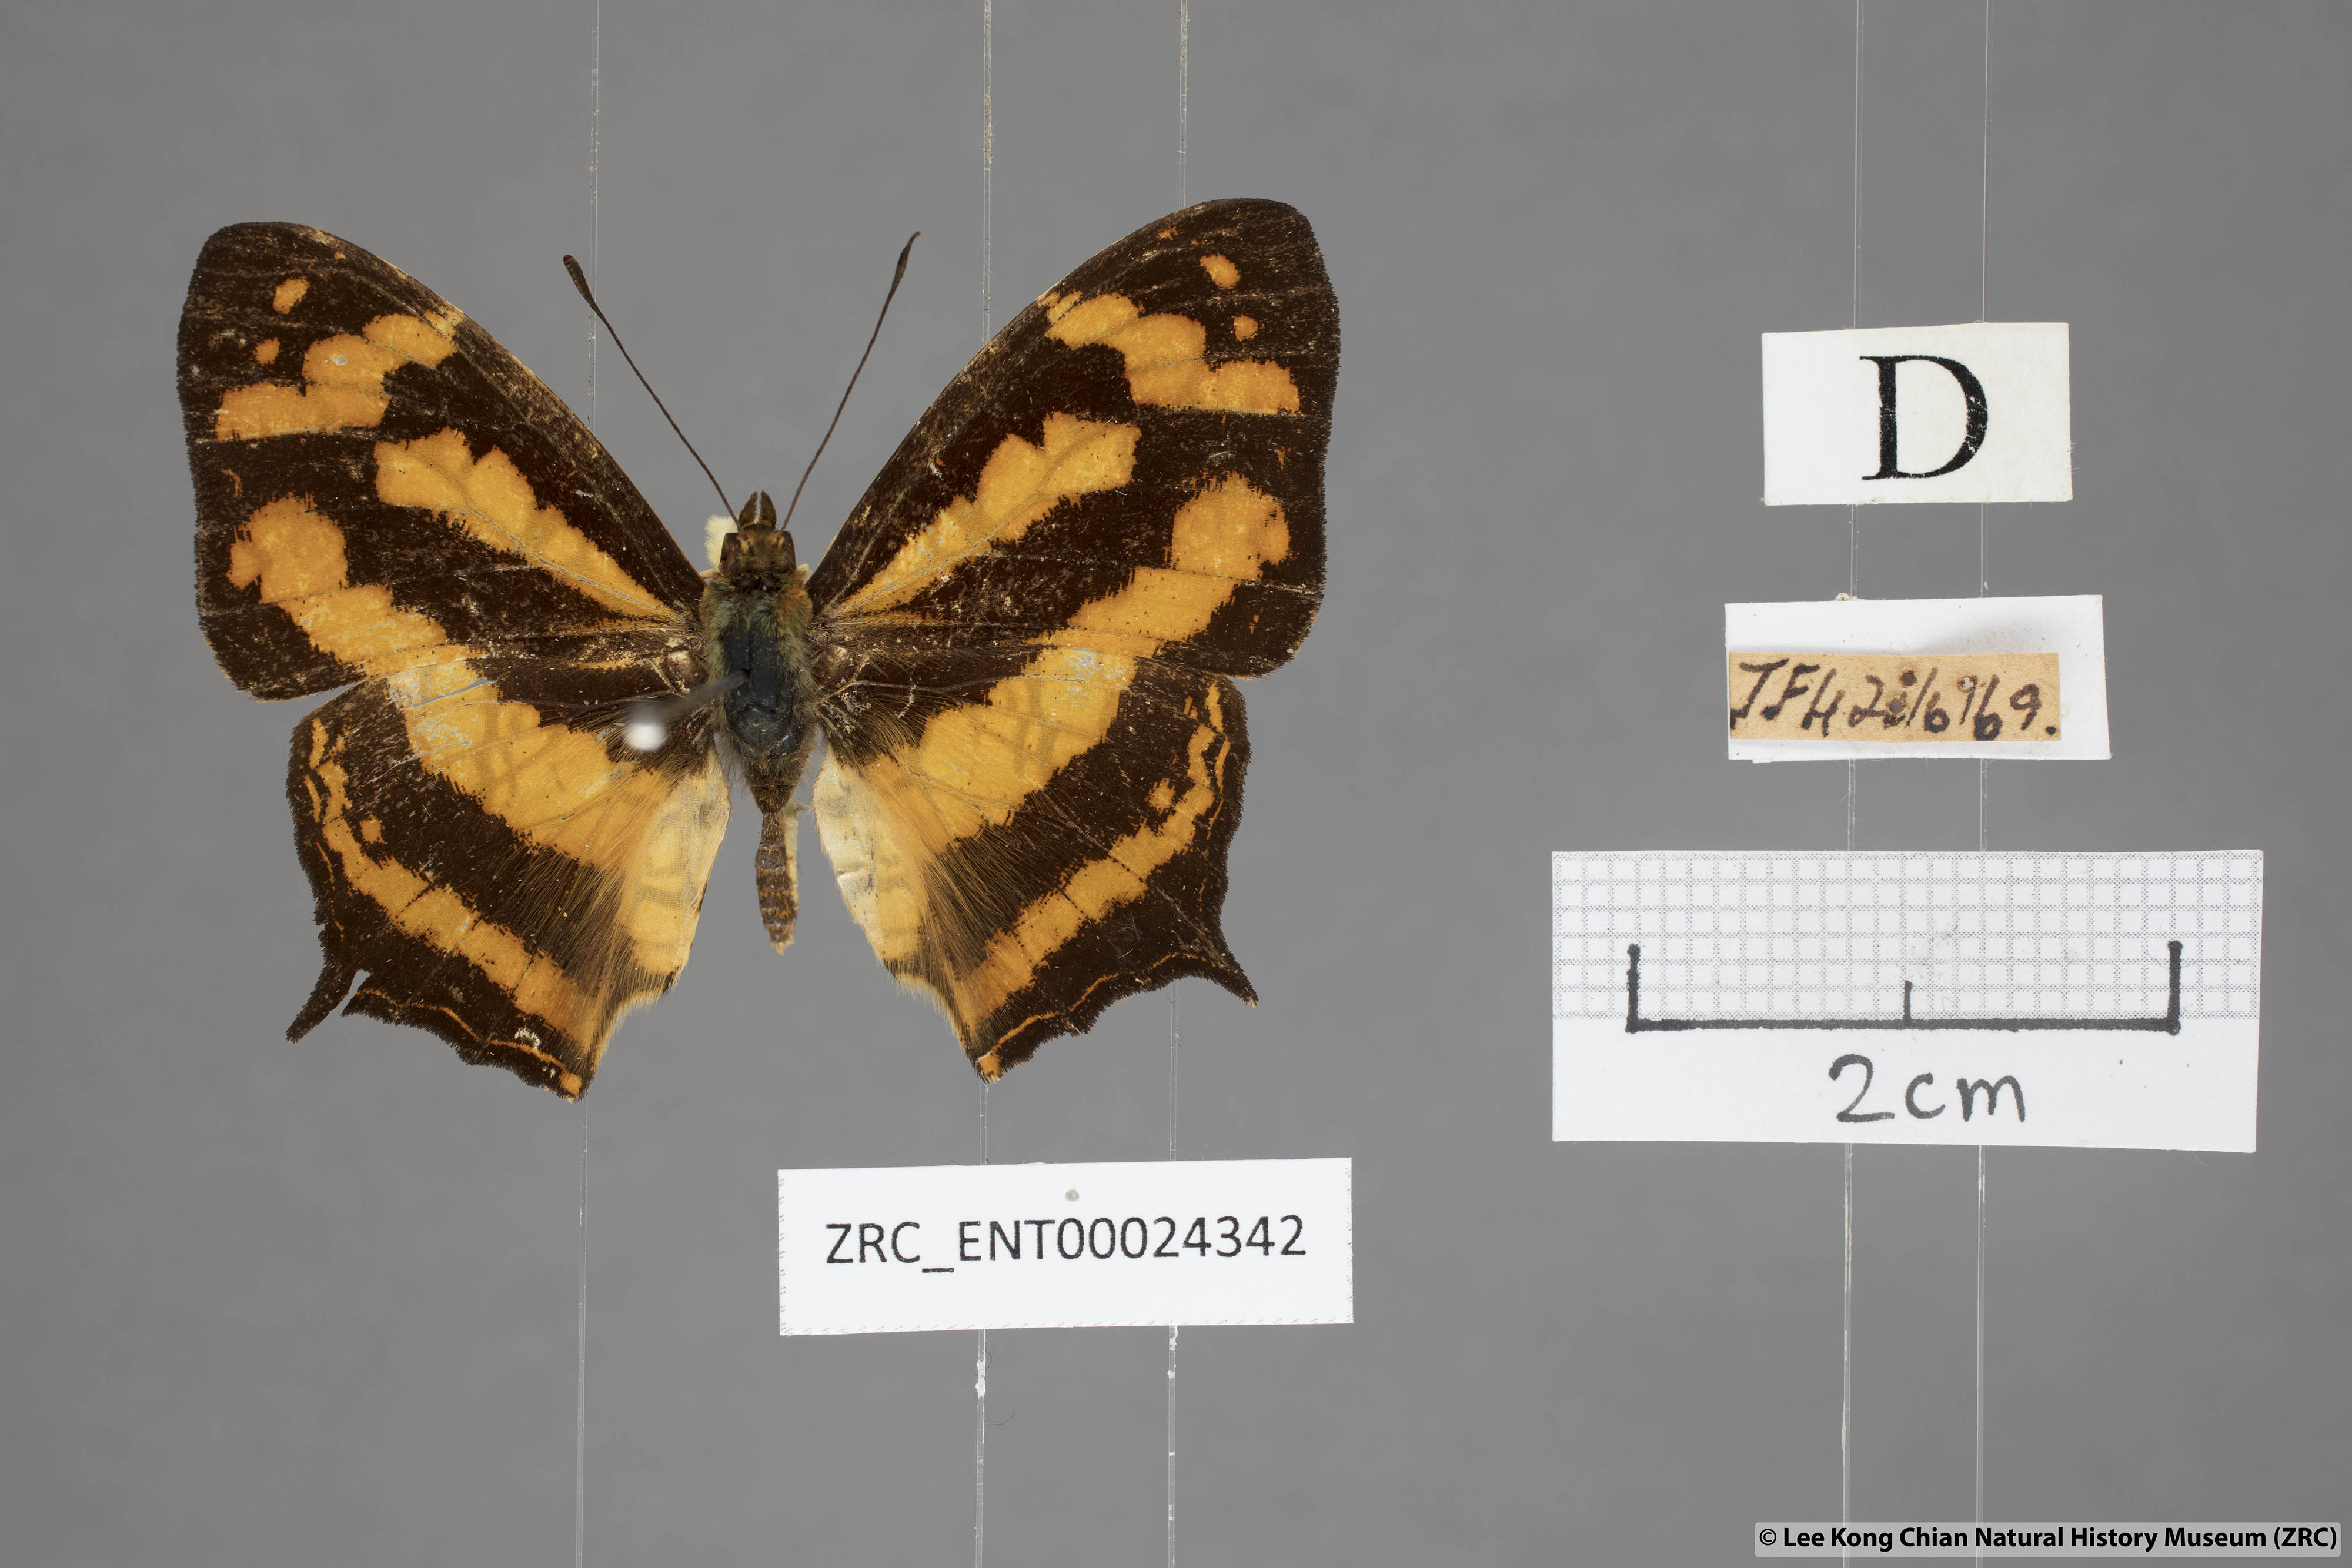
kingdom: Animalia
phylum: Arthropoda
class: Insecta
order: Lepidoptera
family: Nymphalidae
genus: Symbrenthia
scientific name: Symbrenthia hypatia
